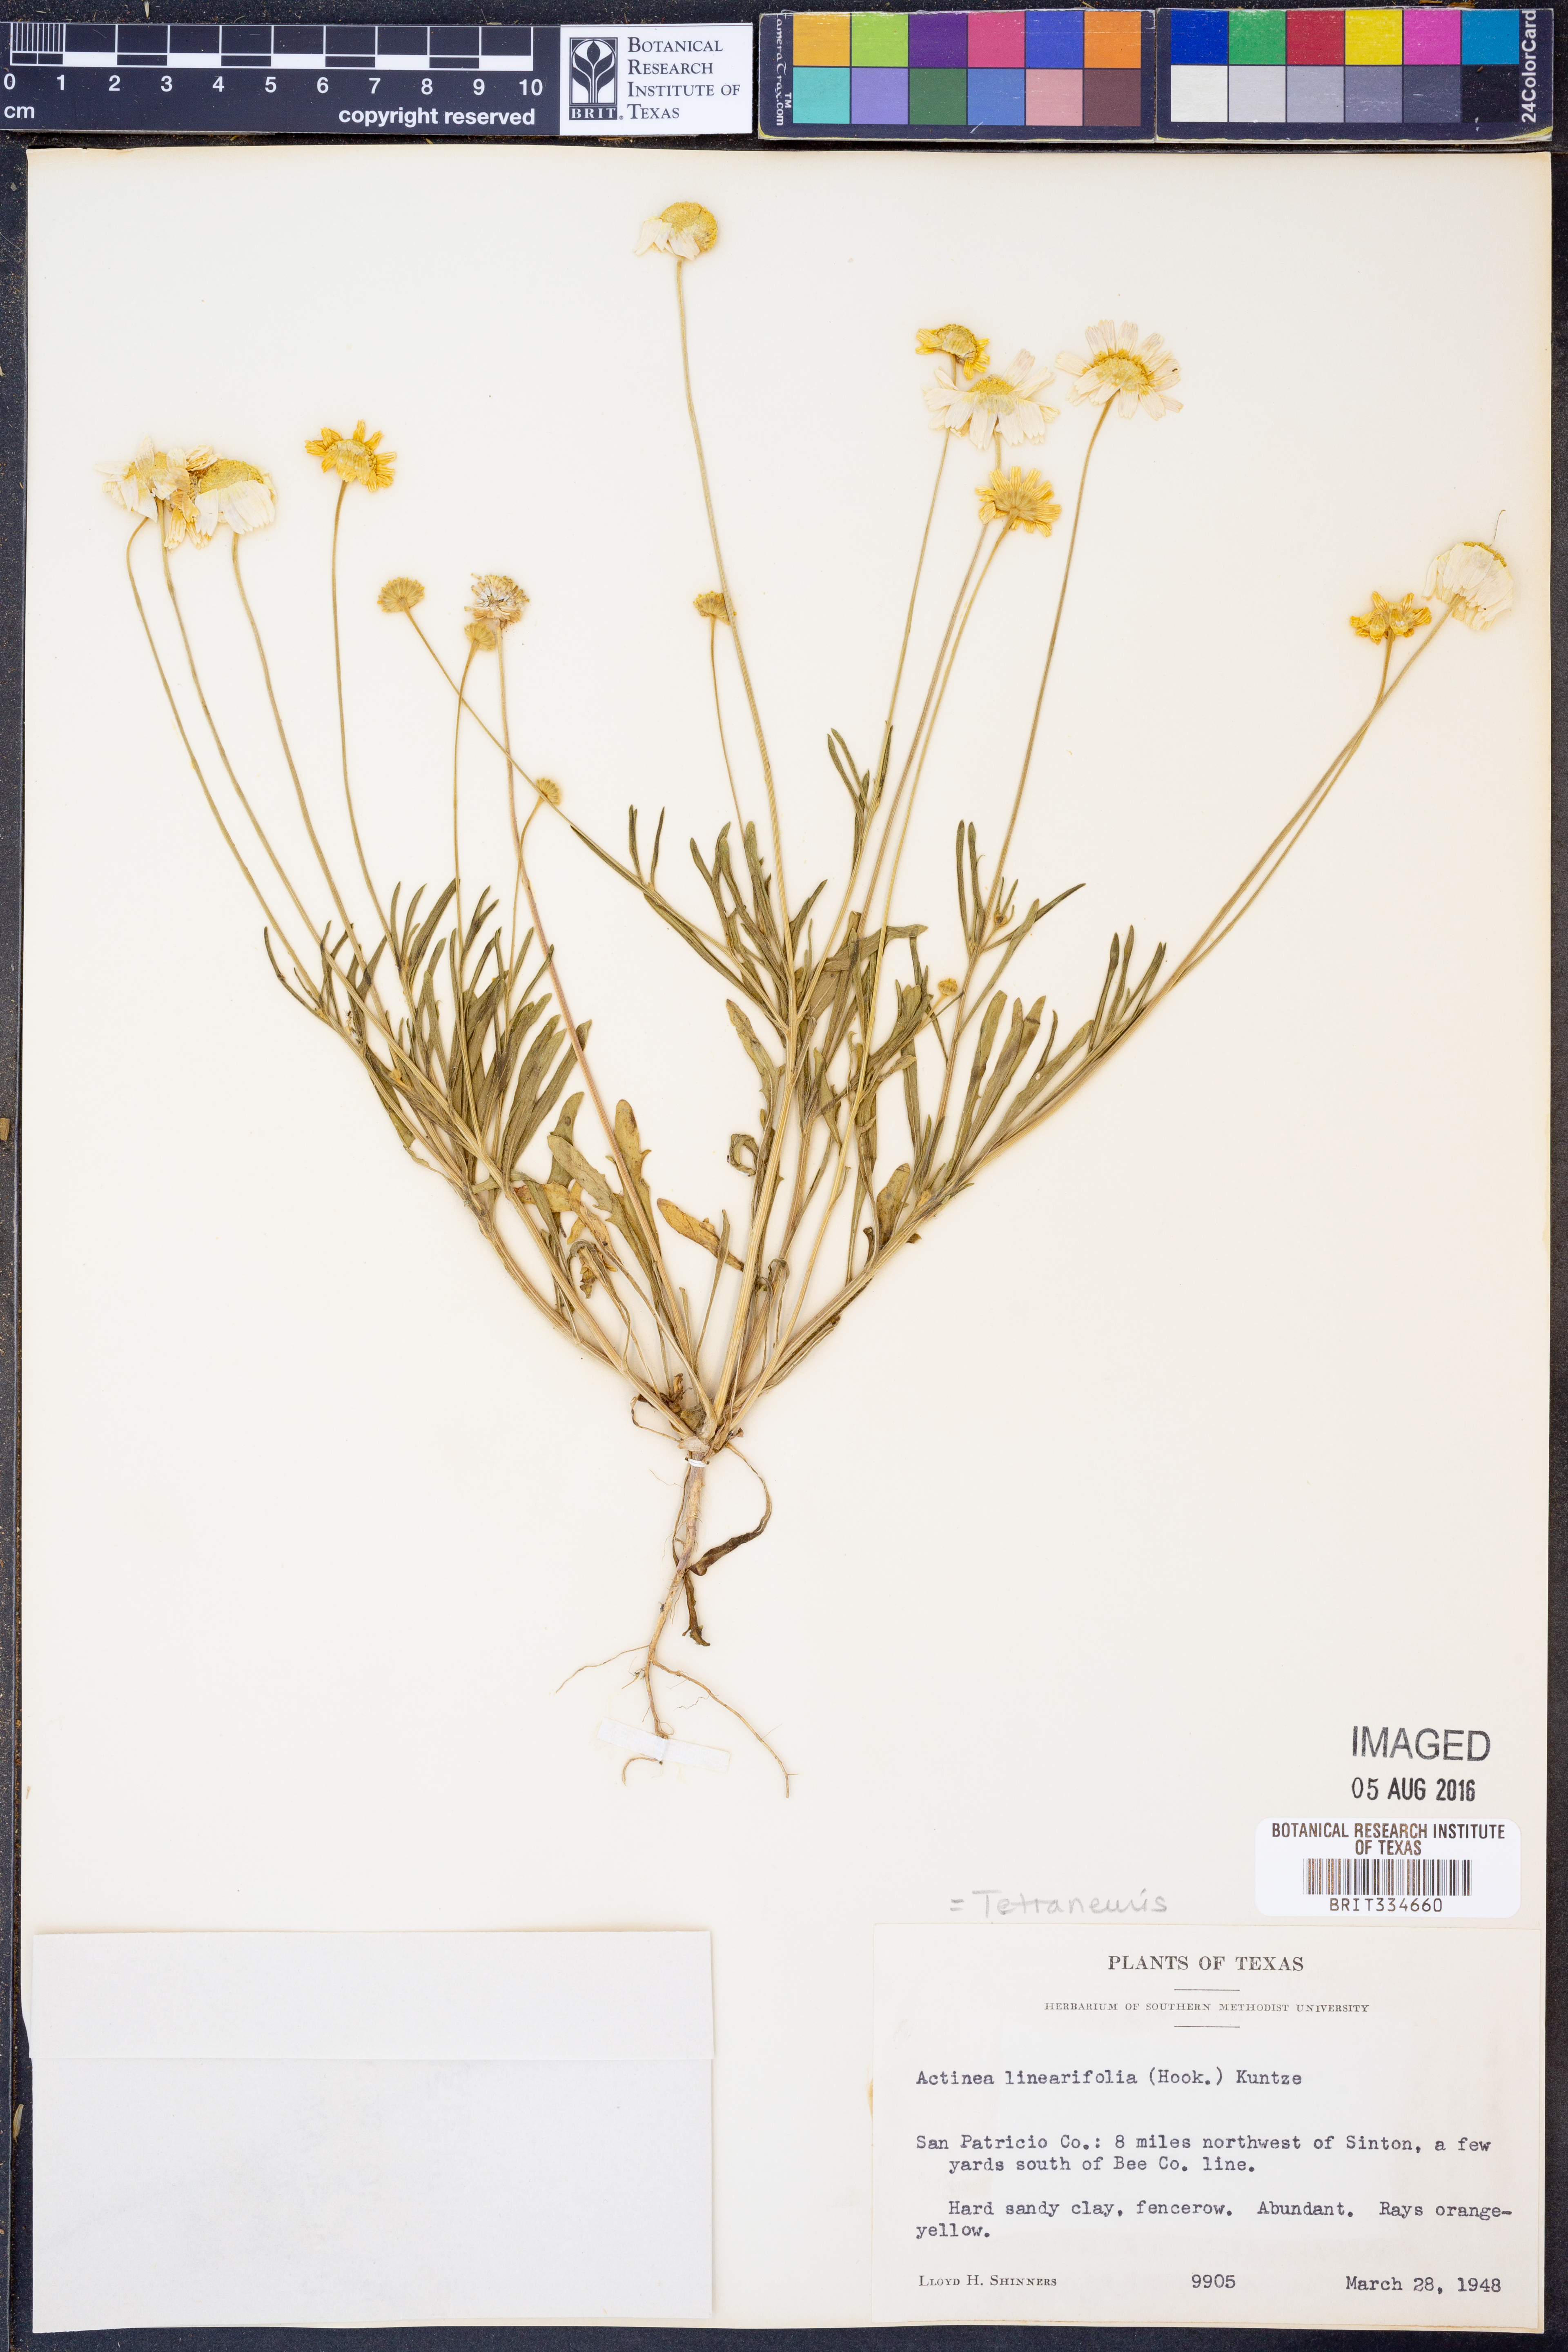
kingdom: Plantae
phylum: Tracheophyta
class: Magnoliopsida
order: Asterales
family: Asteraceae
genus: Tetraneuris
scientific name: Tetraneuris linearifolia
